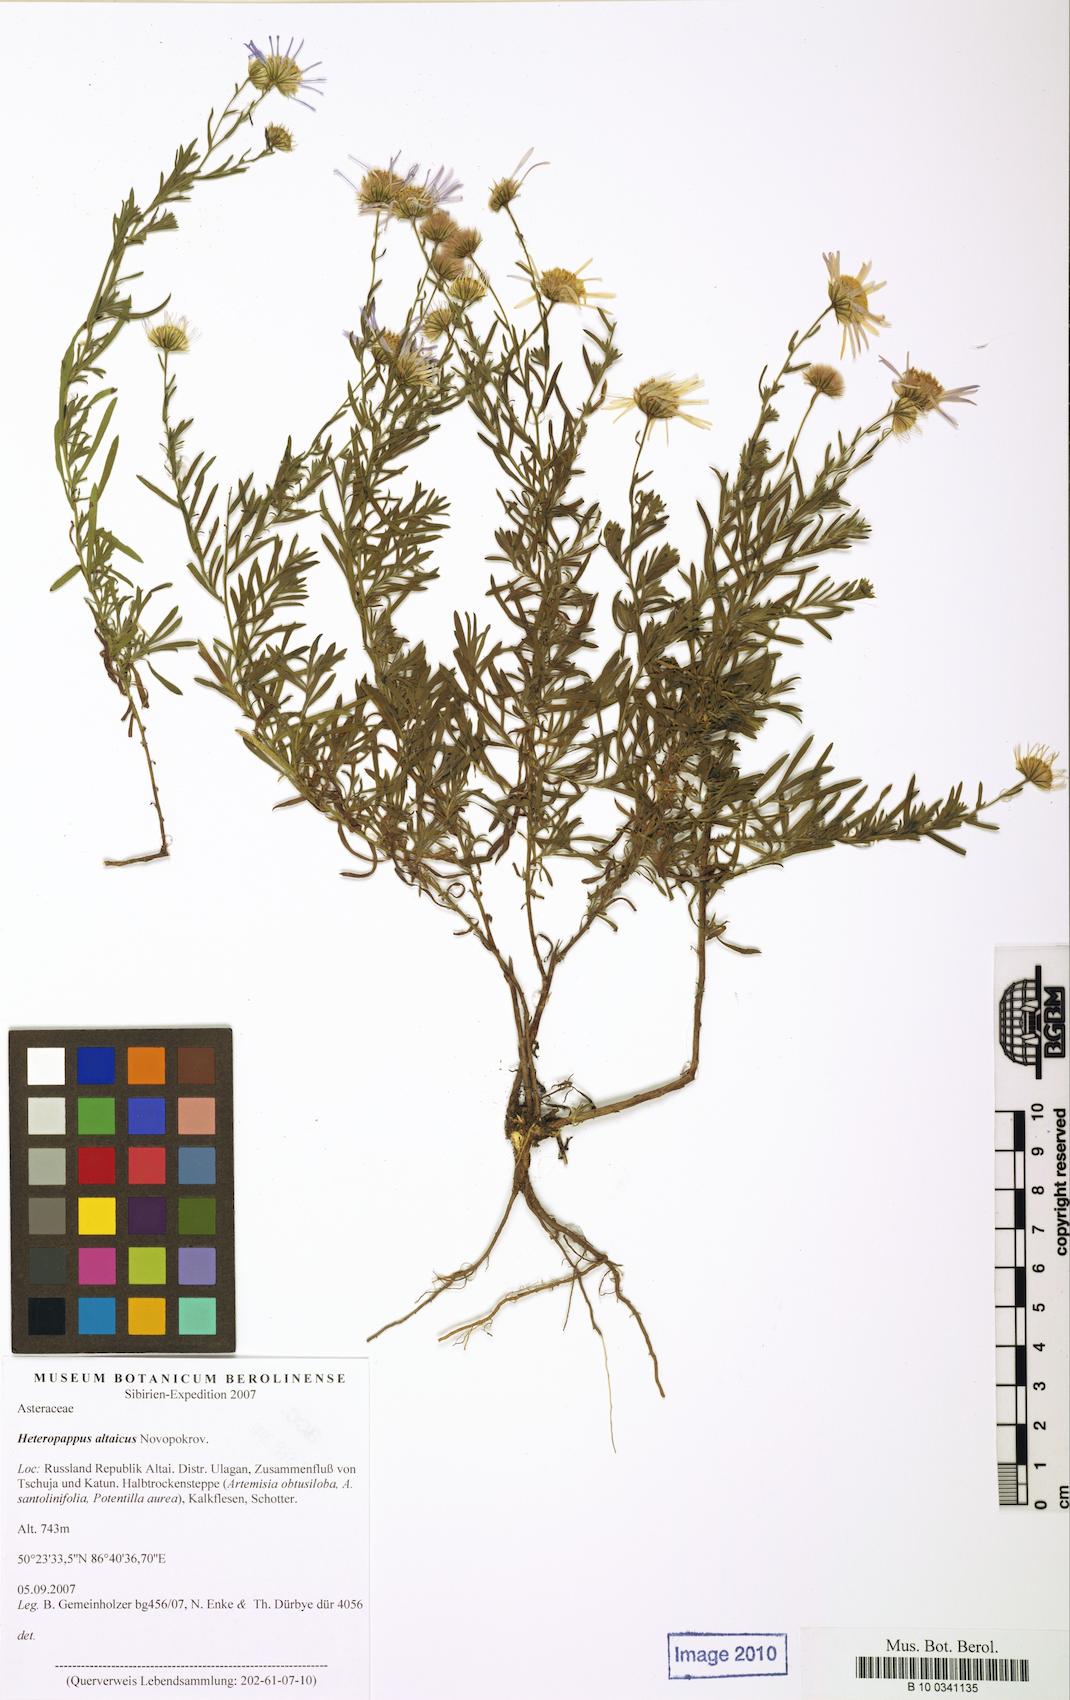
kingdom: Plantae
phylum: Tracheophyta
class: Magnoliopsida
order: Asterales
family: Asteraceae
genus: Heteropappus
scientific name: Heteropappus altaicus
